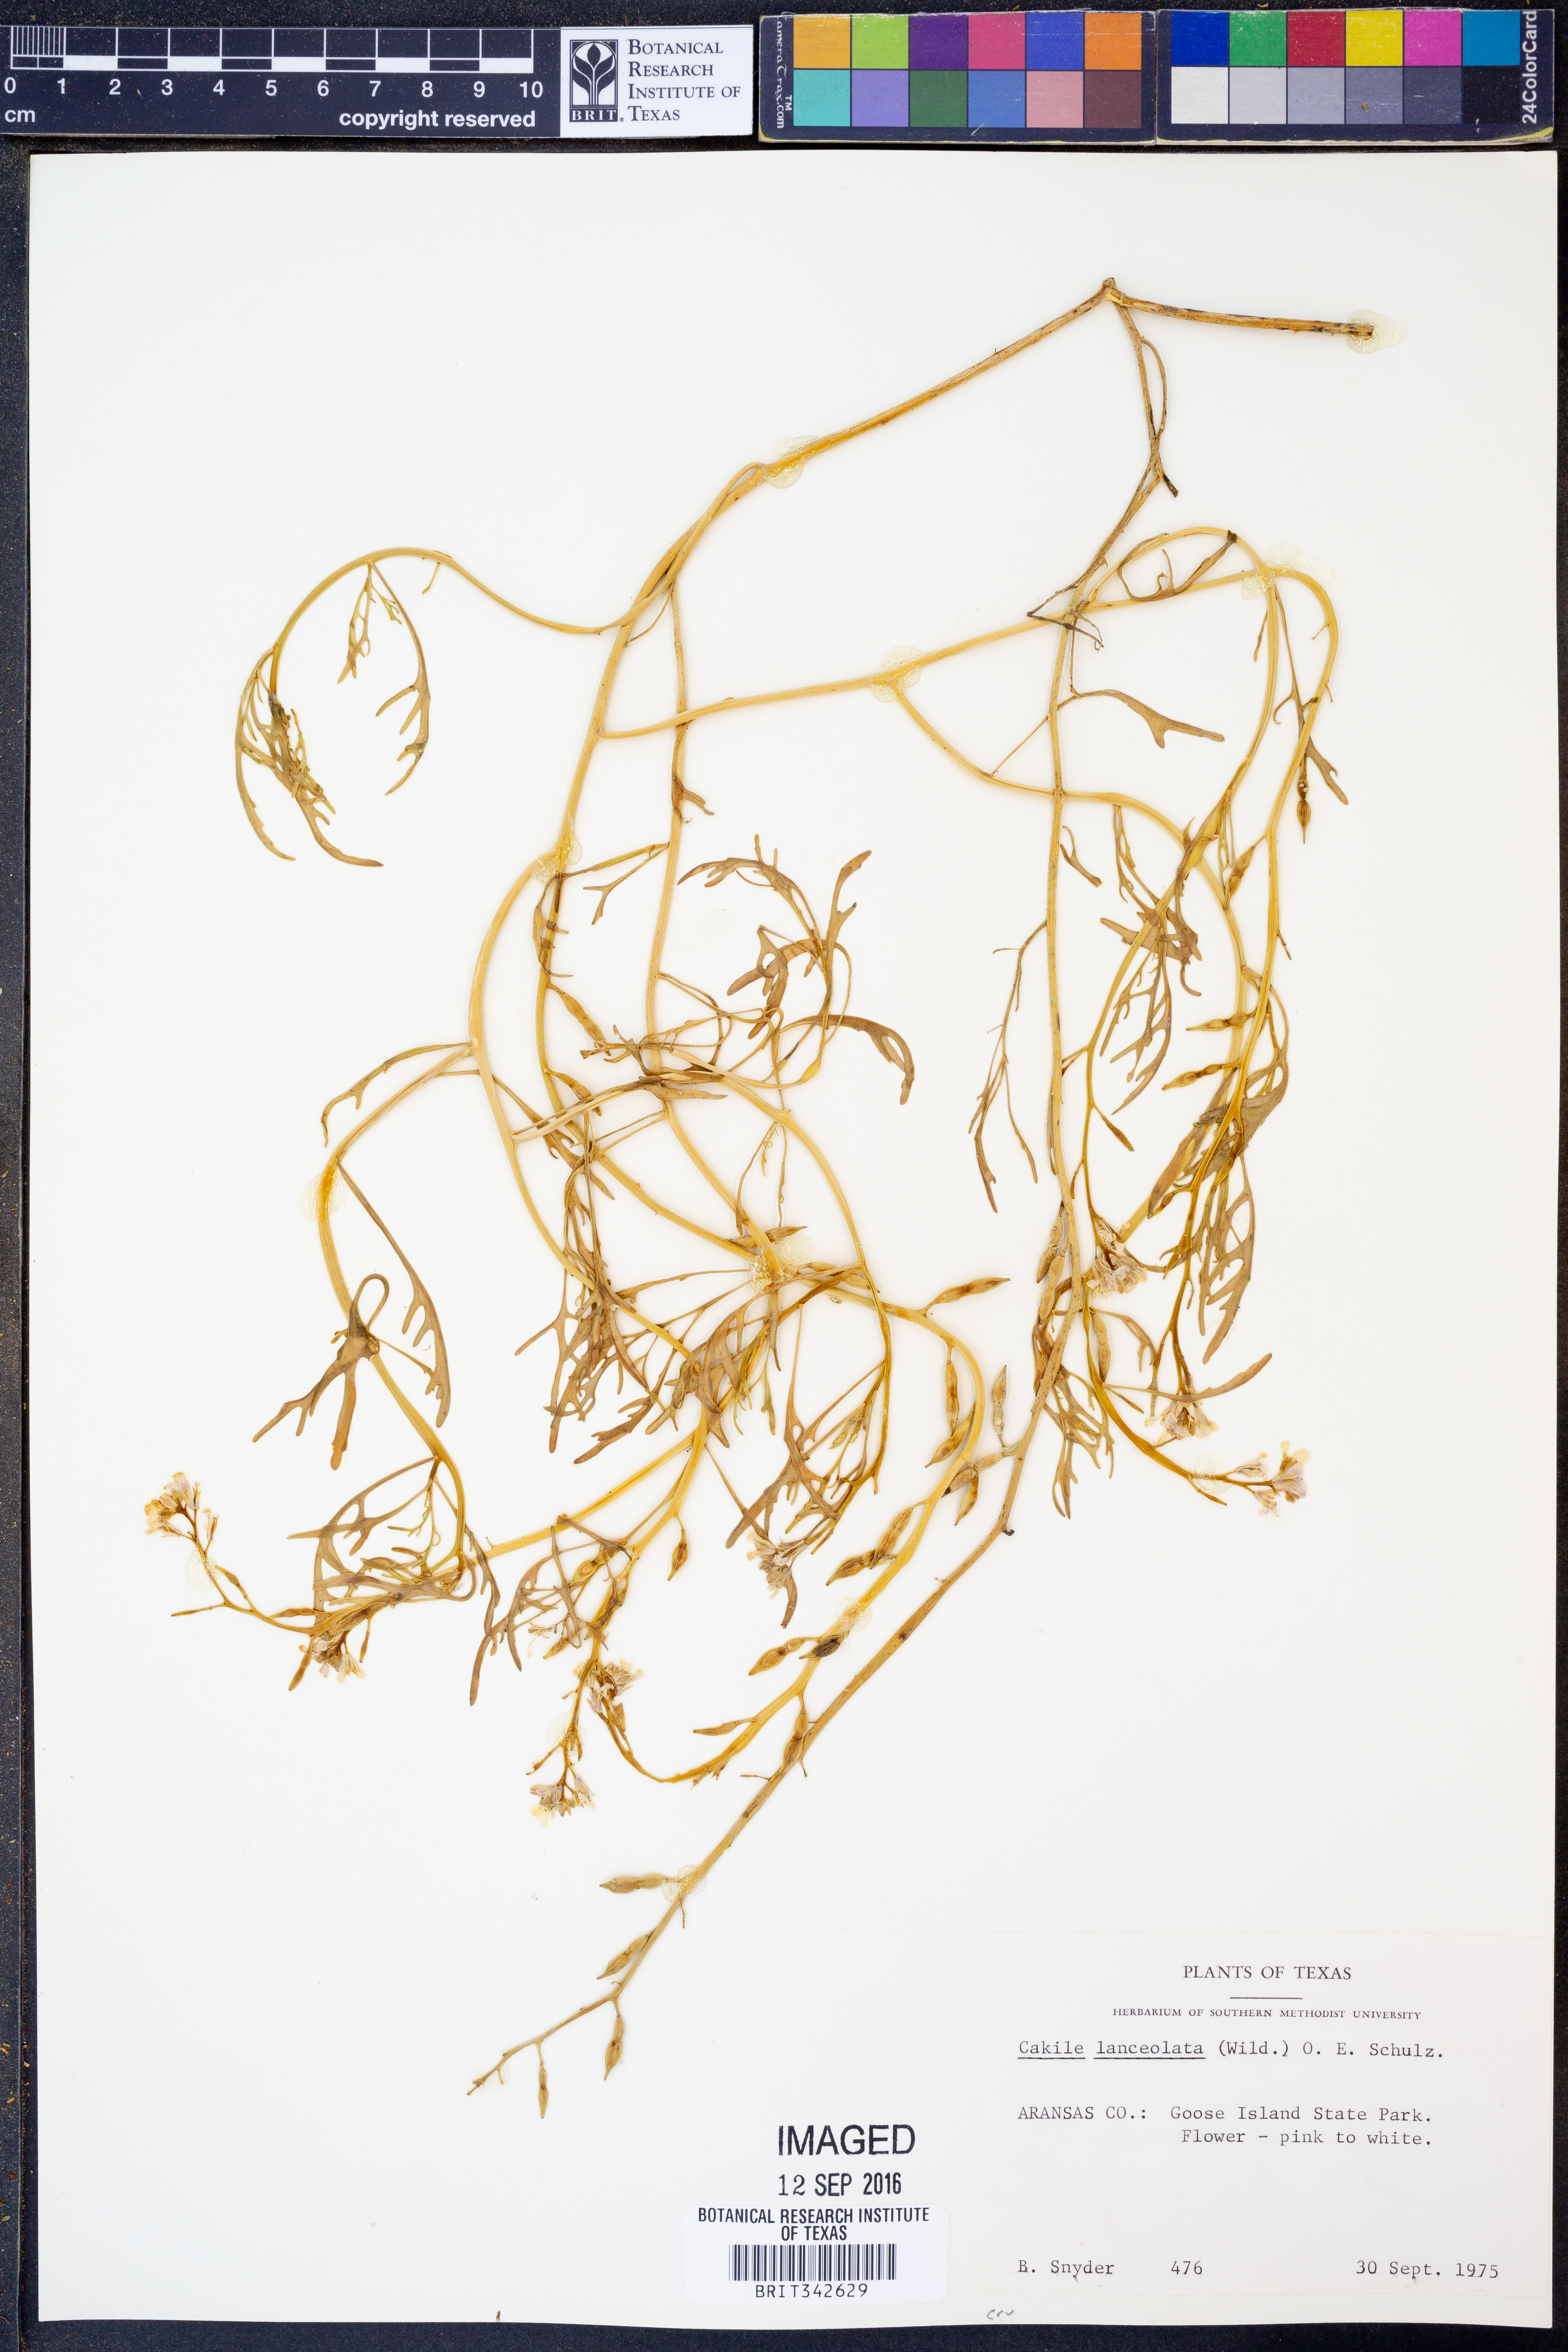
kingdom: Plantae
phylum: Tracheophyta
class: Magnoliopsida
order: Brassicales
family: Brassicaceae
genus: Cakile
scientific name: Cakile lanceolata
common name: Sea rocket
